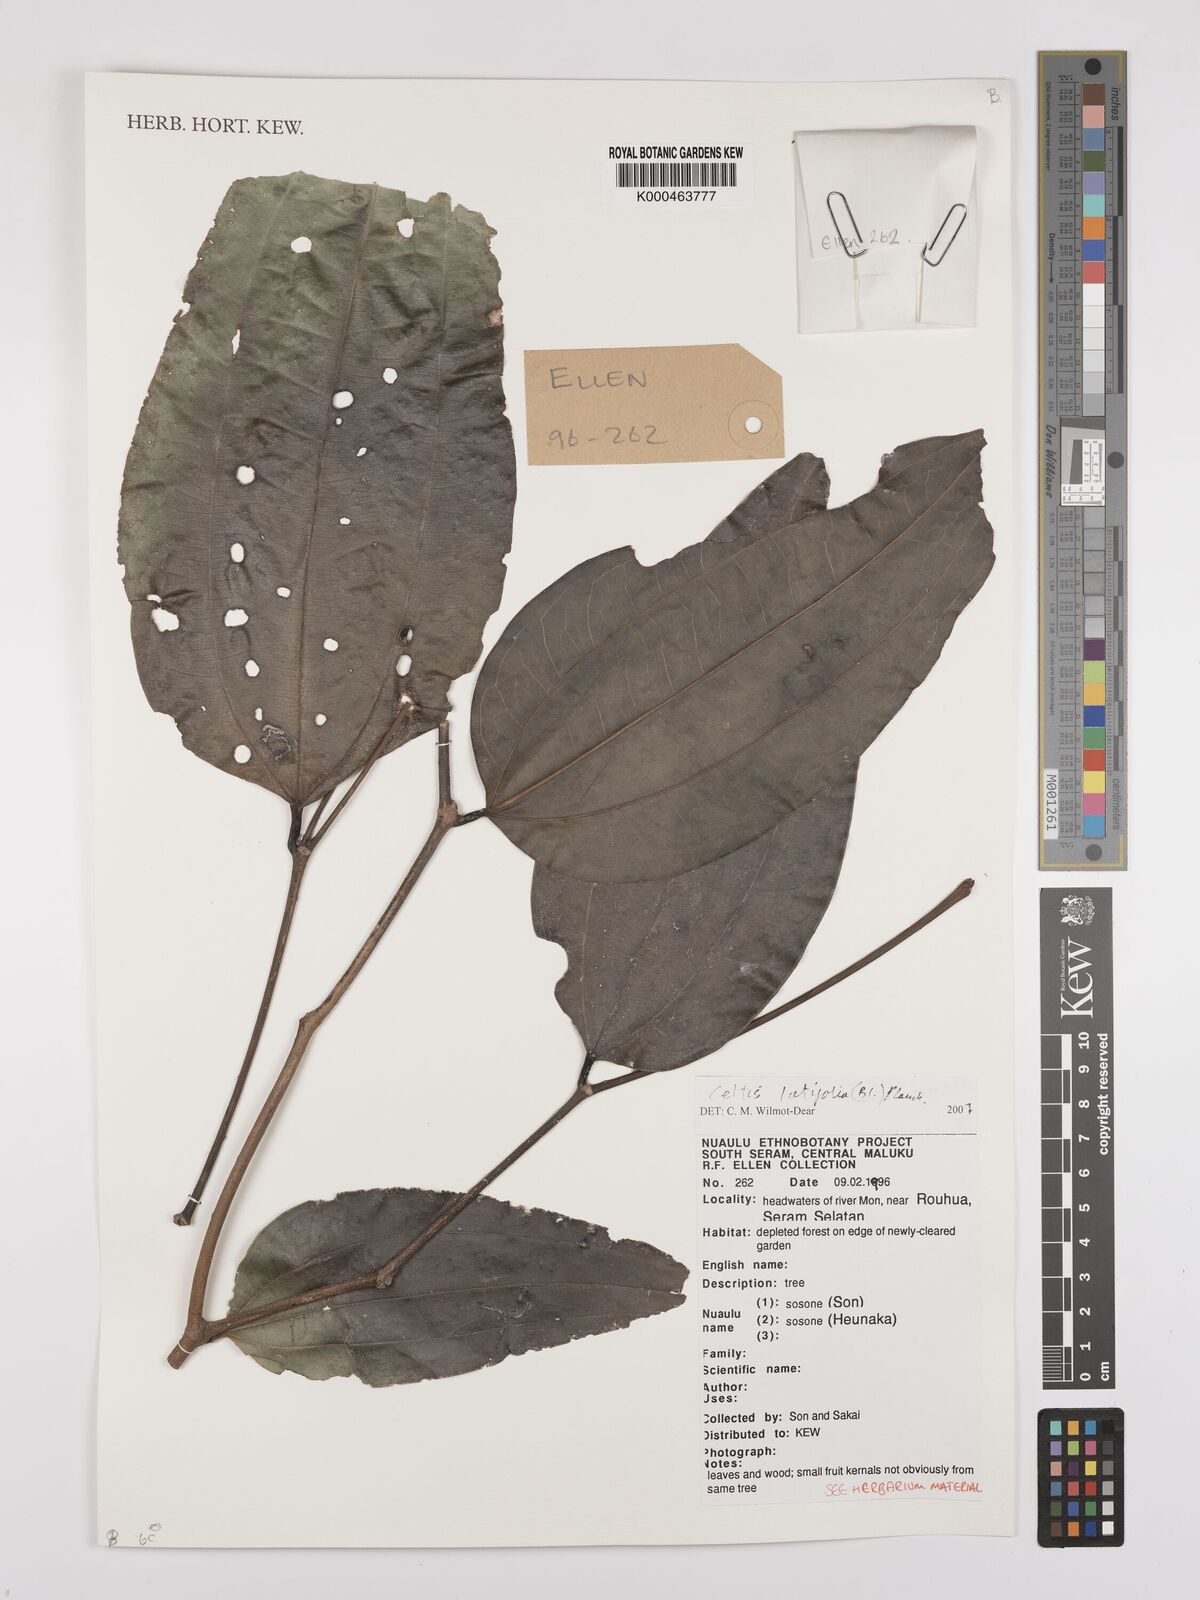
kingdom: Plantae
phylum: Tracheophyta
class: Magnoliopsida
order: Rosales
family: Cannabaceae
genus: Celtis
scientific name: Celtis latifolia
